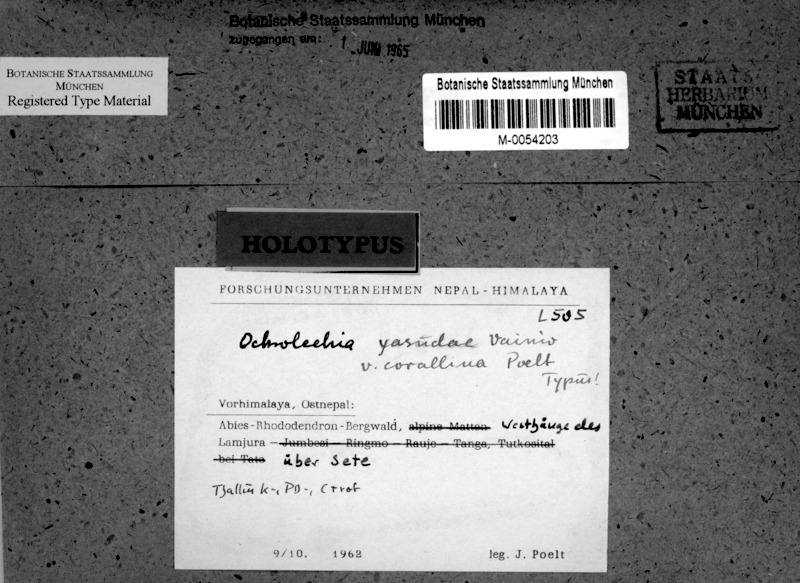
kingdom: Fungi
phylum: Ascomycota
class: Lecanoromycetes
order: Pertusariales
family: Ochrolechiaceae
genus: Ochrolechia
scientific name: Ochrolechia yasudae
